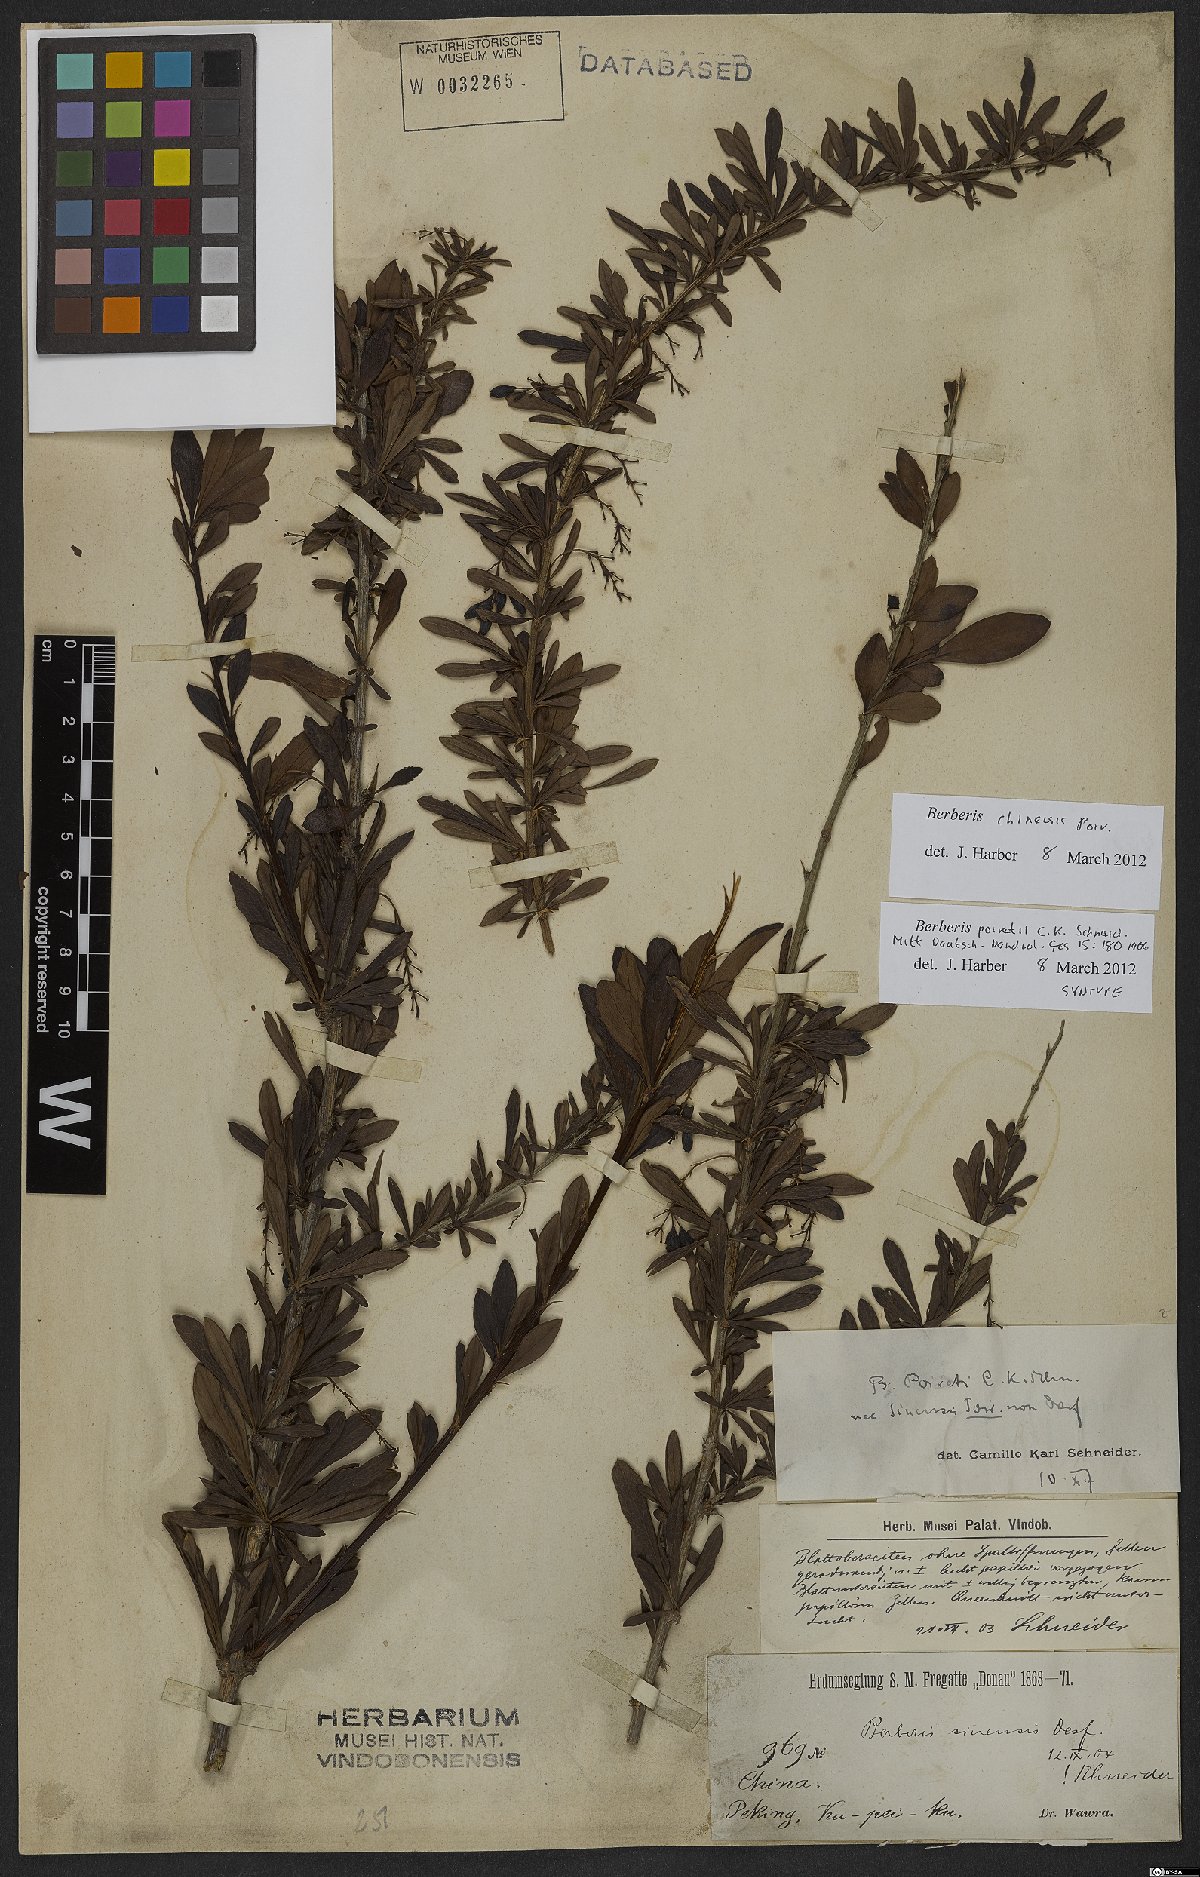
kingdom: Plantae
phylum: Tracheophyta
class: Magnoliopsida
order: Ranunculales
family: Berberidaceae
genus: Berberis
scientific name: Berberis chinensis
